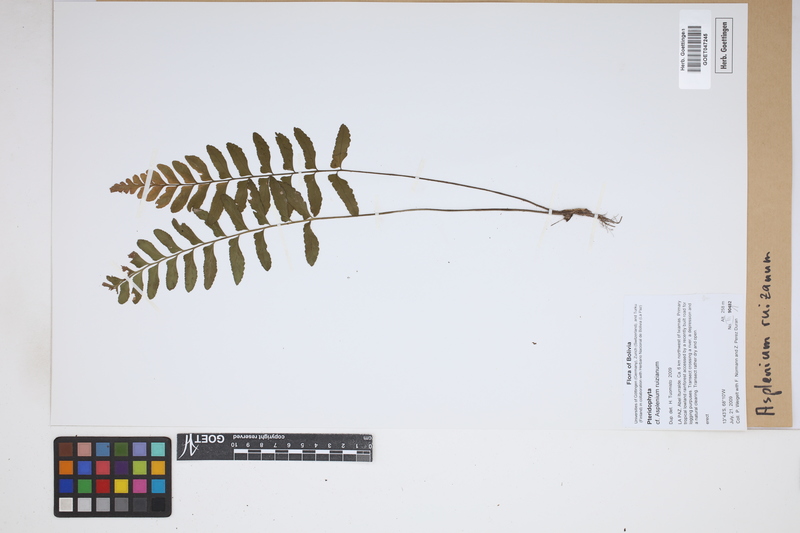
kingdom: Plantae
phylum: Tracheophyta
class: Polypodiopsida
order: Polypodiales
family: Aspleniaceae
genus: Asplenium
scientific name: Asplenium ruizianum
